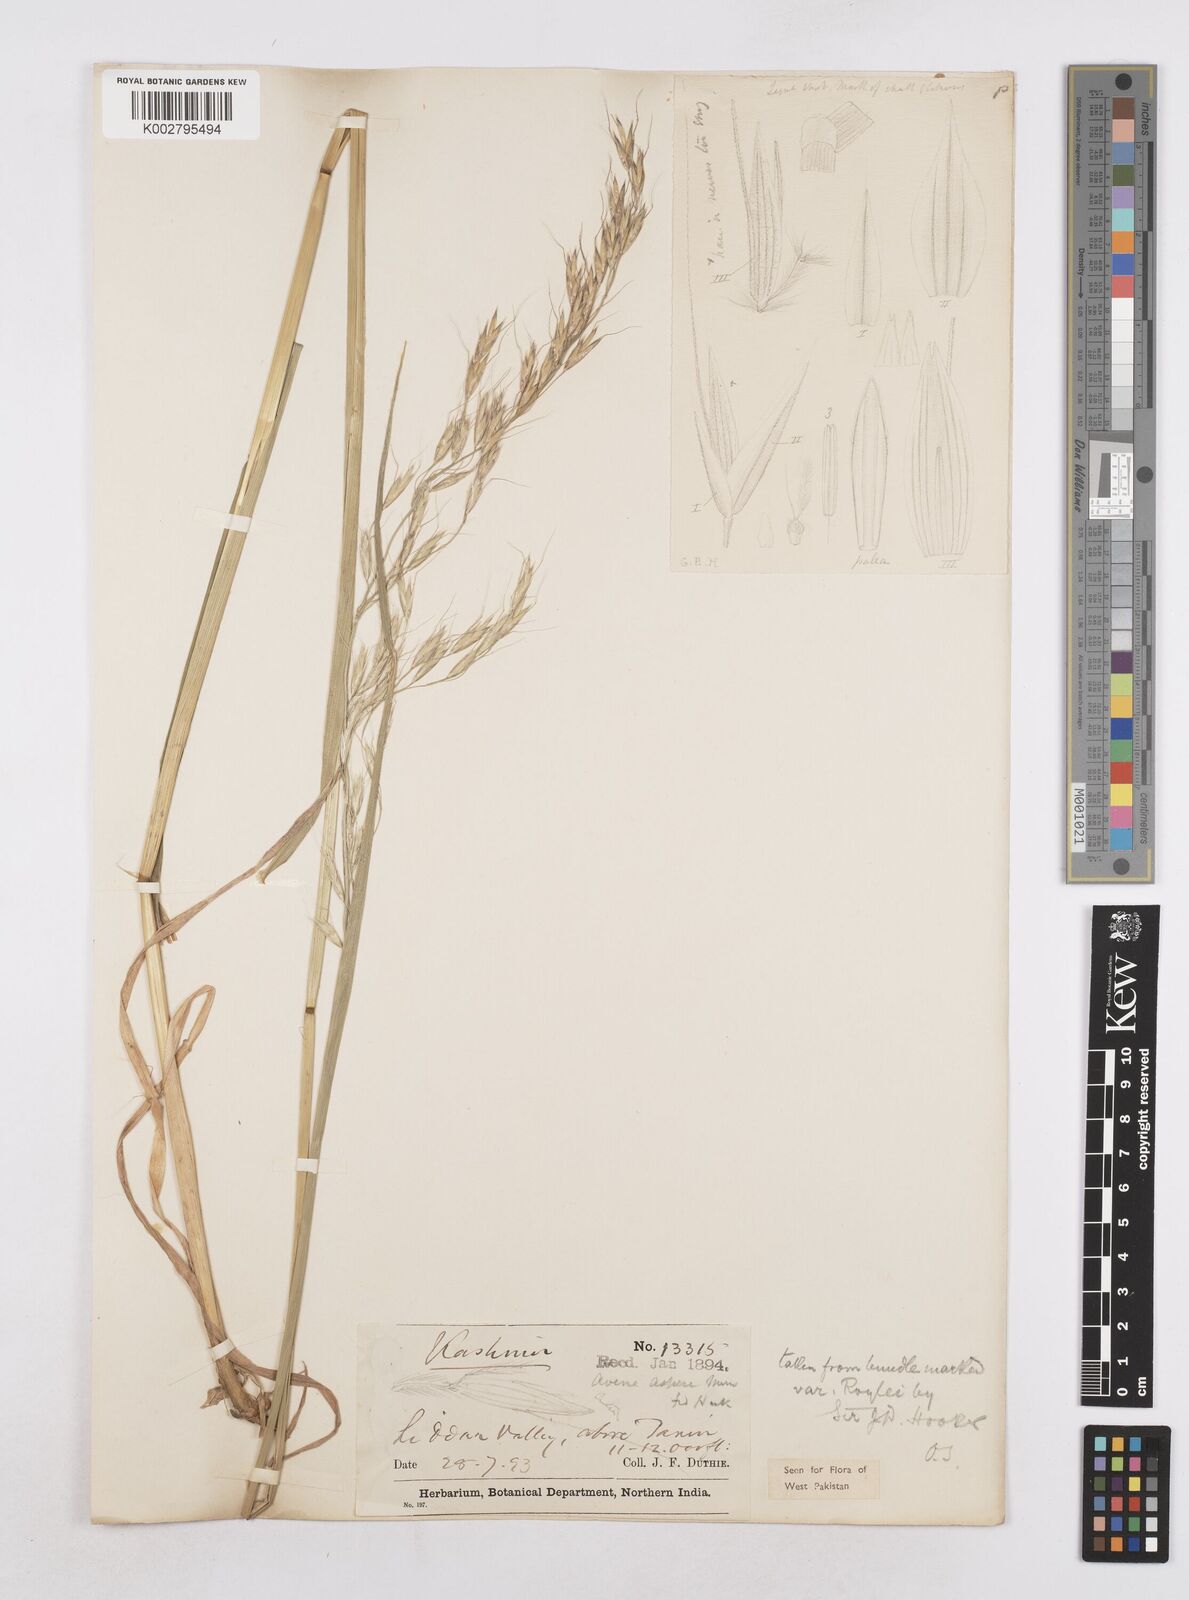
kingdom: Plantae
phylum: Tracheophyta
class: Liliopsida
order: Poales
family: Poaceae
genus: Trisetopsis
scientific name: Trisetopsis junghuhnii
